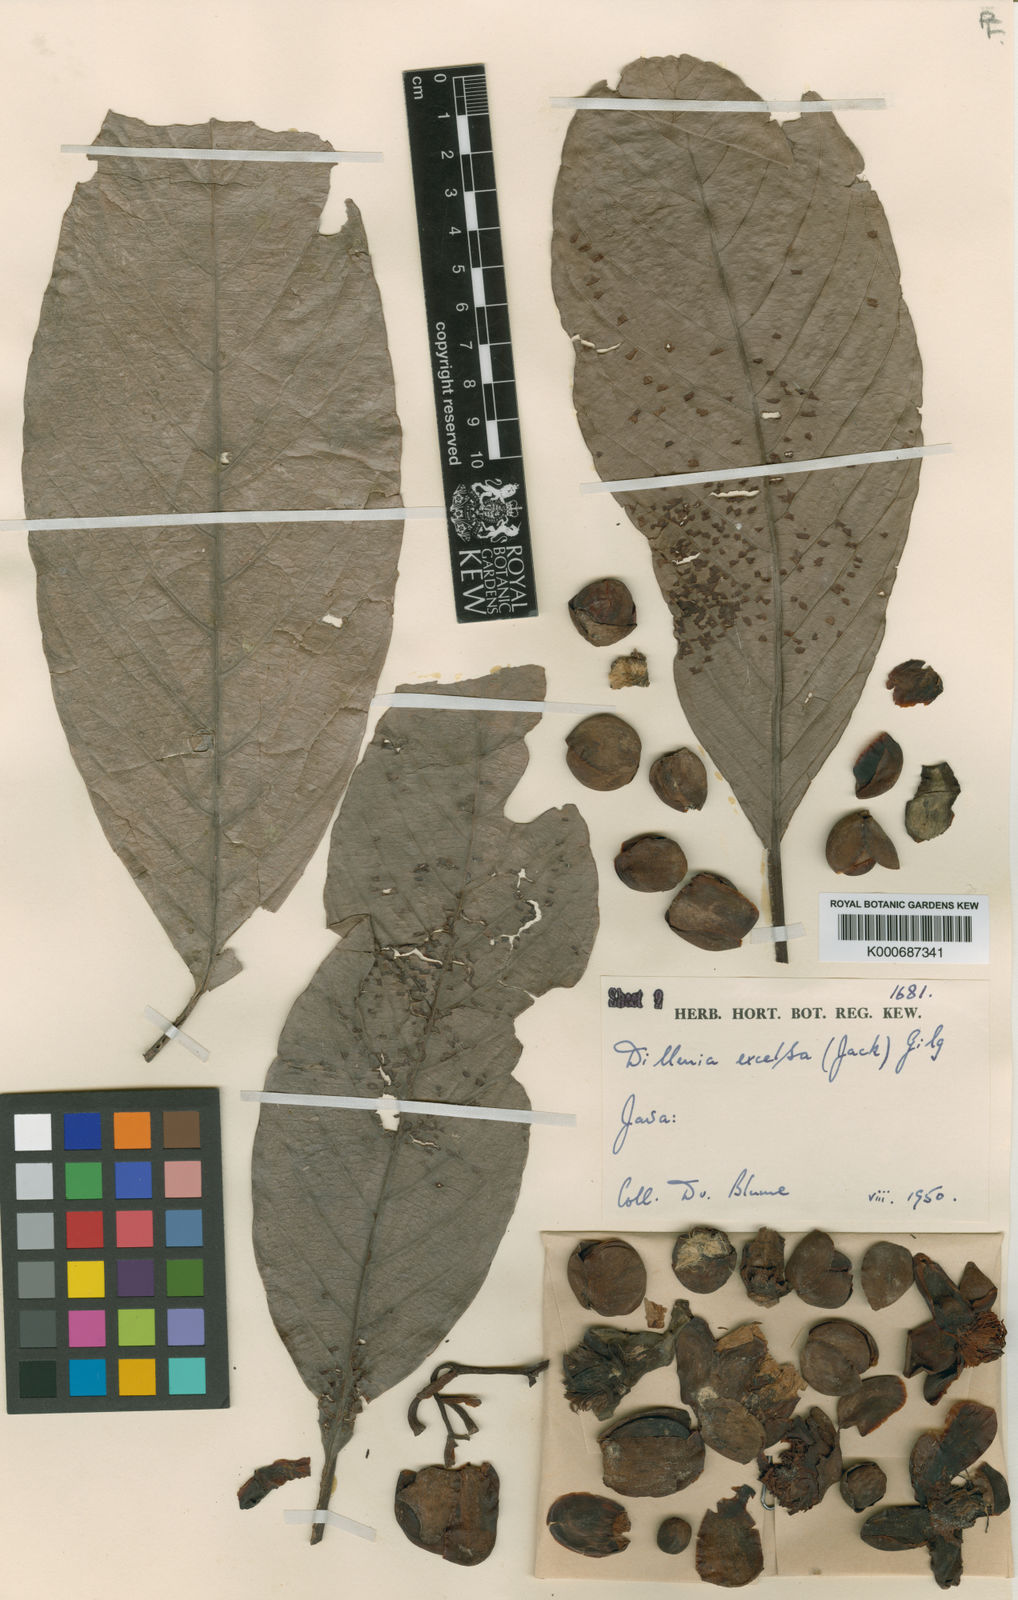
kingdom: Plantae
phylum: Tracheophyta
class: Magnoliopsida
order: Dilleniales
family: Dilleniaceae
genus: Dillenia
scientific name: Dillenia
